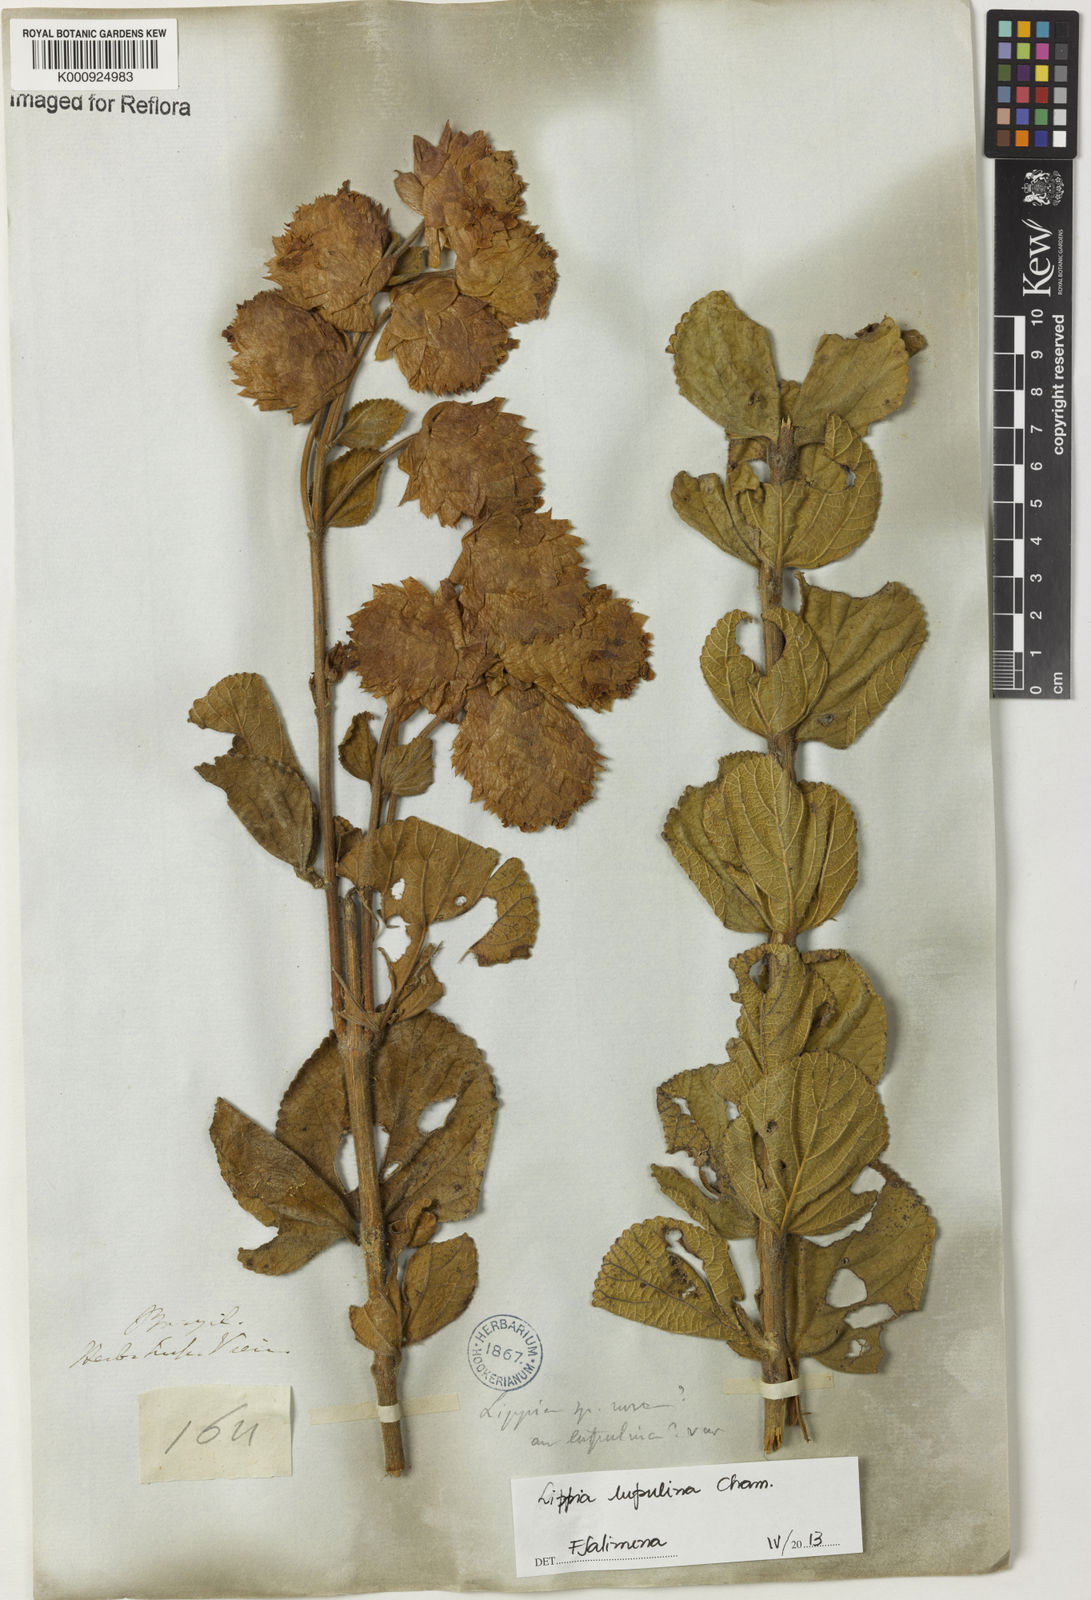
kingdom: Plantae
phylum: Tracheophyta
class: Magnoliopsida
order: Lamiales
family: Verbenaceae
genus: Lippia
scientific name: Lippia lupulina
